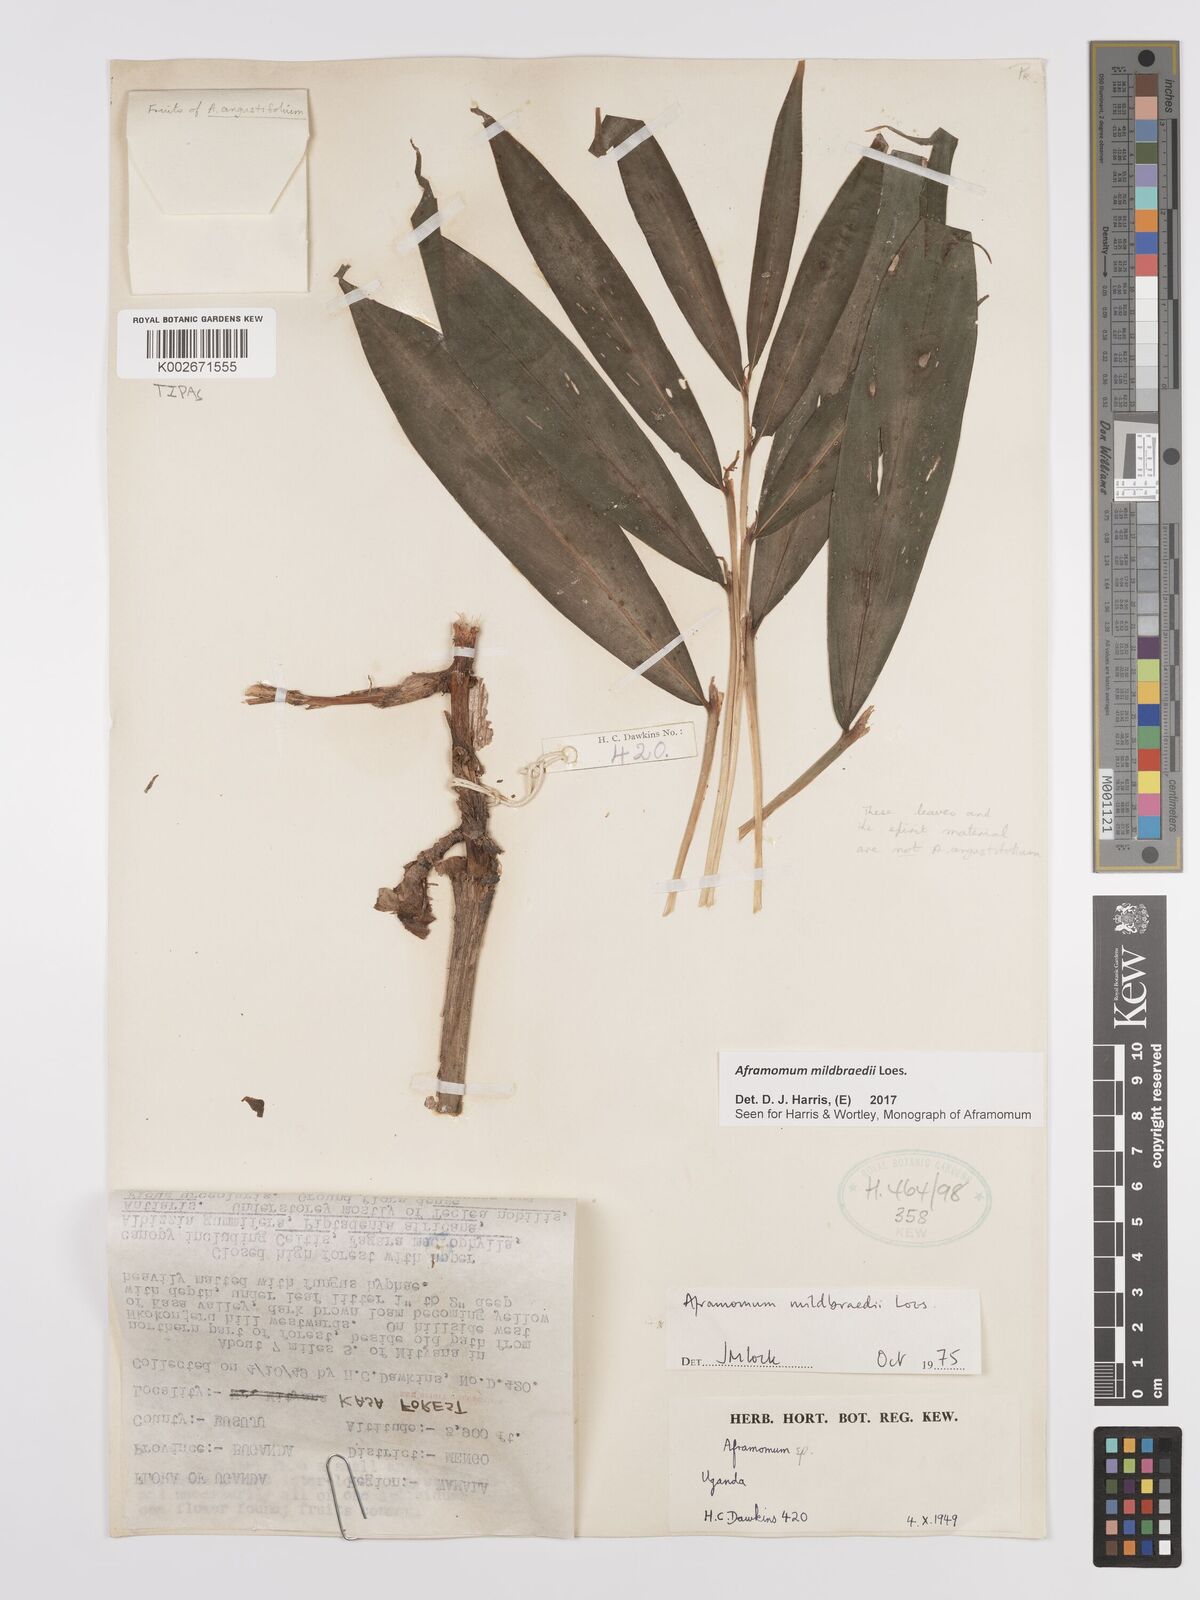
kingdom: Plantae
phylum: Tracheophyta
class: Liliopsida
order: Zingiberales
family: Zingiberaceae
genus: Aframomum
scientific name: Aframomum mildbraedii
